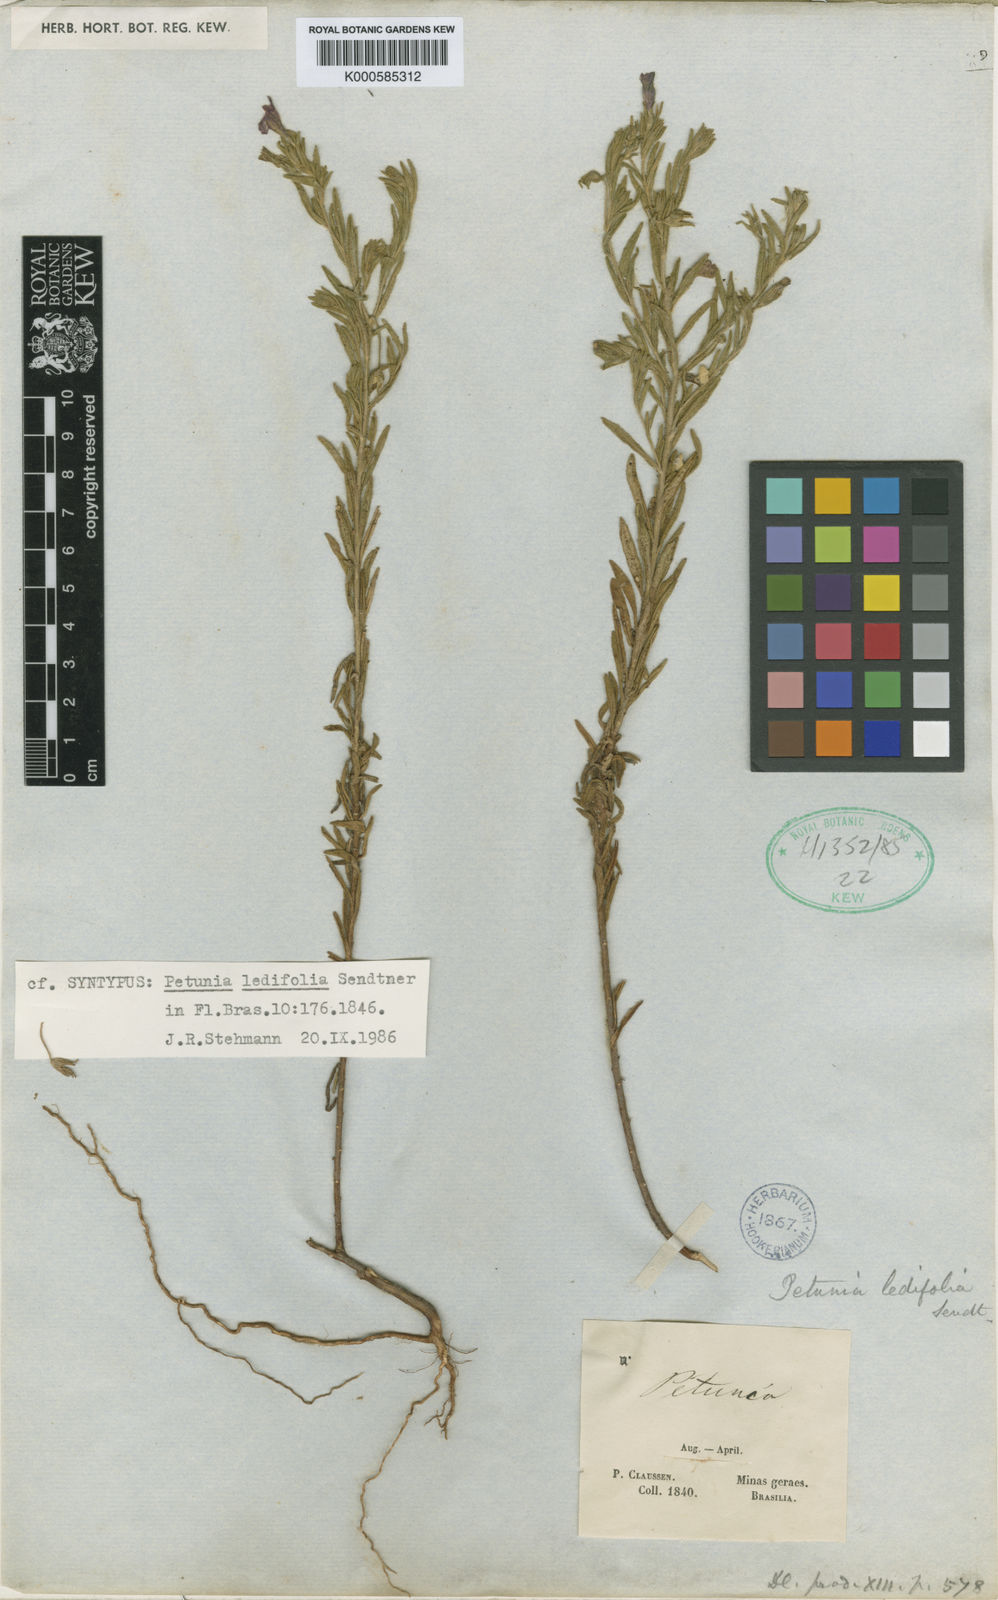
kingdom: Plantae
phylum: Tracheophyta
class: Magnoliopsida
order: Solanales
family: Solanaceae
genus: Calibrachoa
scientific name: Calibrachoa elegans
